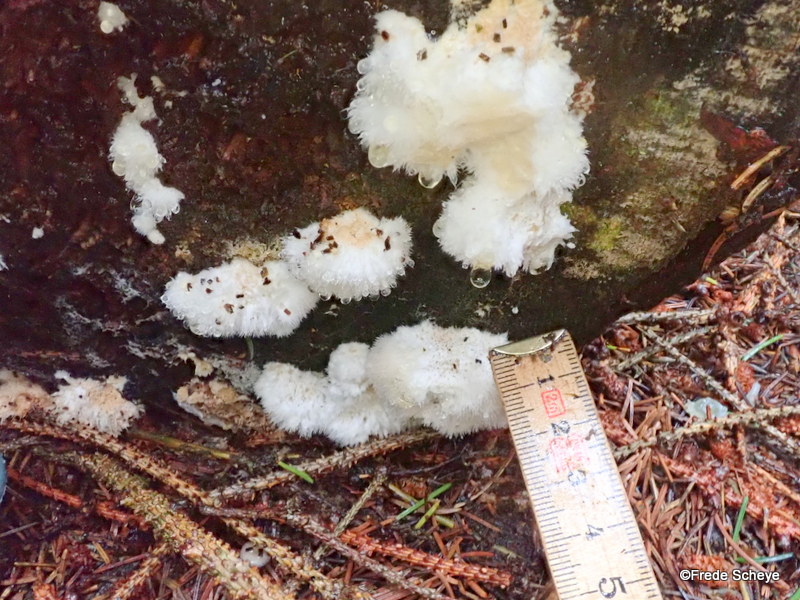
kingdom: Fungi
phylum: Basidiomycota
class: Agaricomycetes
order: Polyporales
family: Dacryobolaceae
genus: Postia
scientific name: Postia ptychogaster
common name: støvende kødporesvamp
